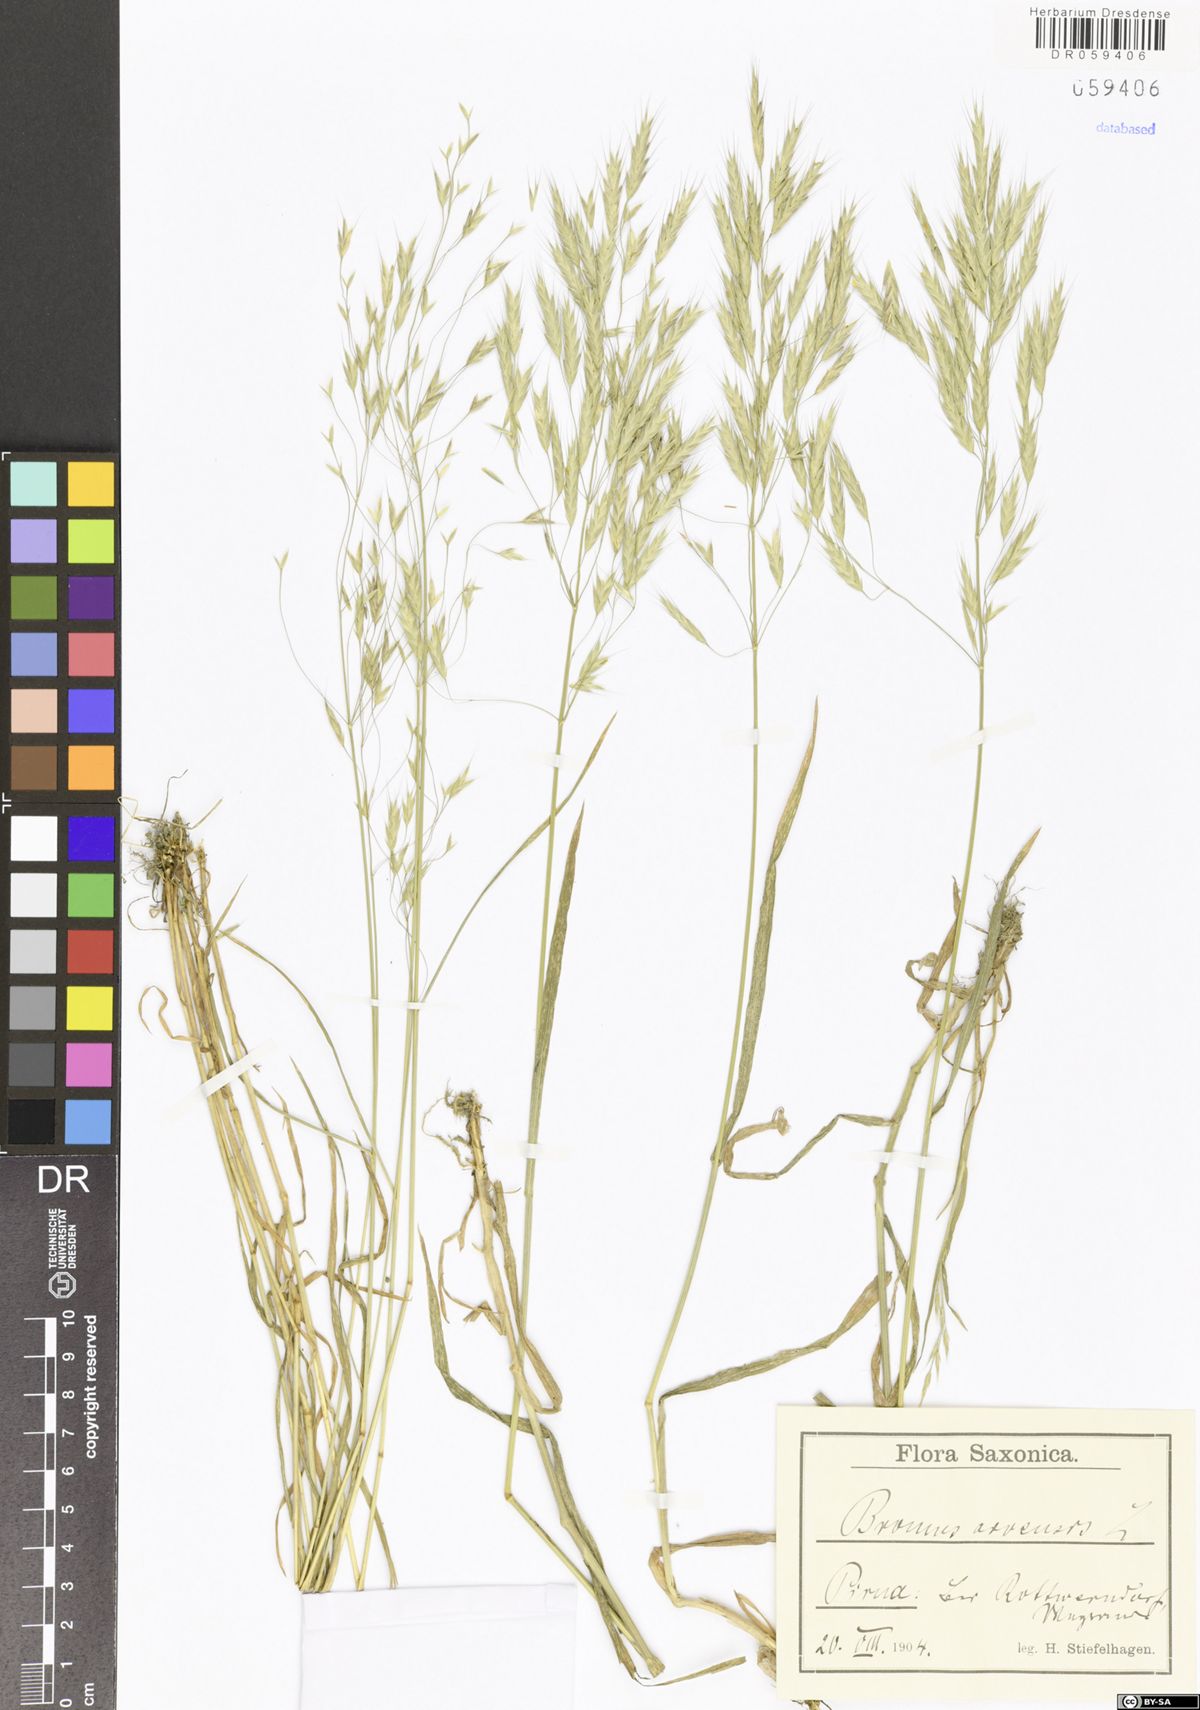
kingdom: Plantae
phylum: Tracheophyta
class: Liliopsida
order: Poales
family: Poaceae
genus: Bromus
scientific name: Bromus arvensis
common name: Field brome
